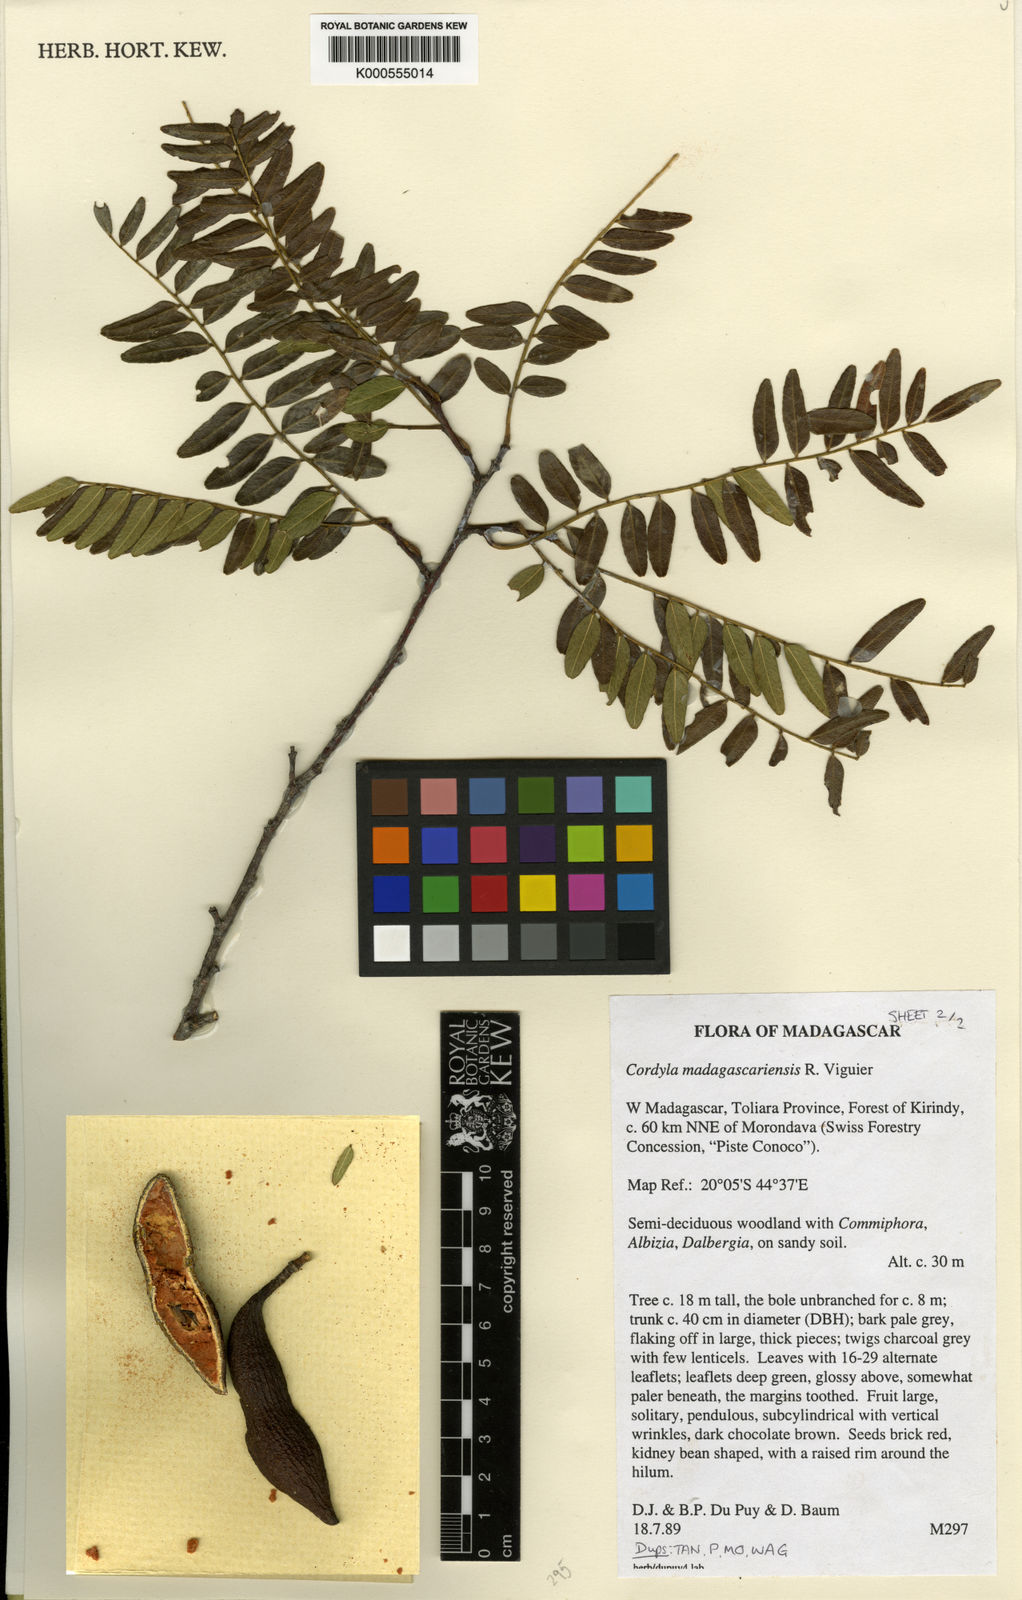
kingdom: Plantae
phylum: Tracheophyta
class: Magnoliopsida
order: Fabales
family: Fabaceae
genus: Cordyla
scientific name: Cordyla madagascariensis
